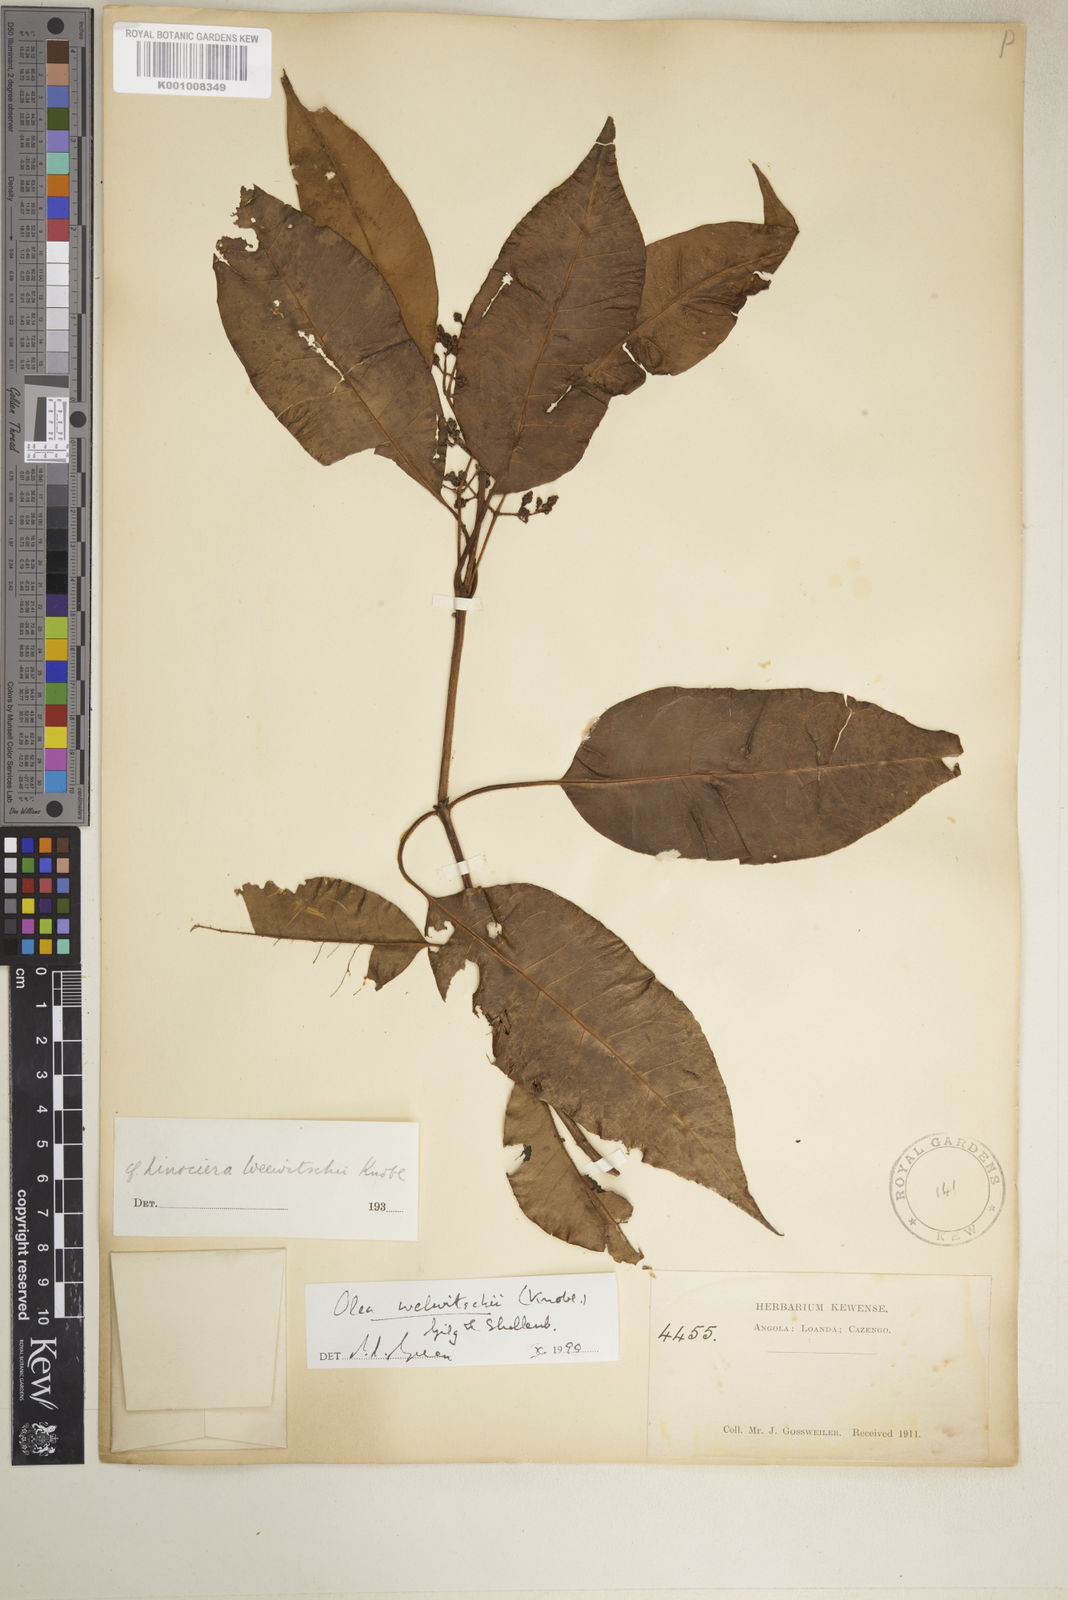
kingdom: Plantae
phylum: Tracheophyta
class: Magnoliopsida
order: Lamiales
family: Oleaceae
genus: Olea
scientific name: Olea welwitschii
